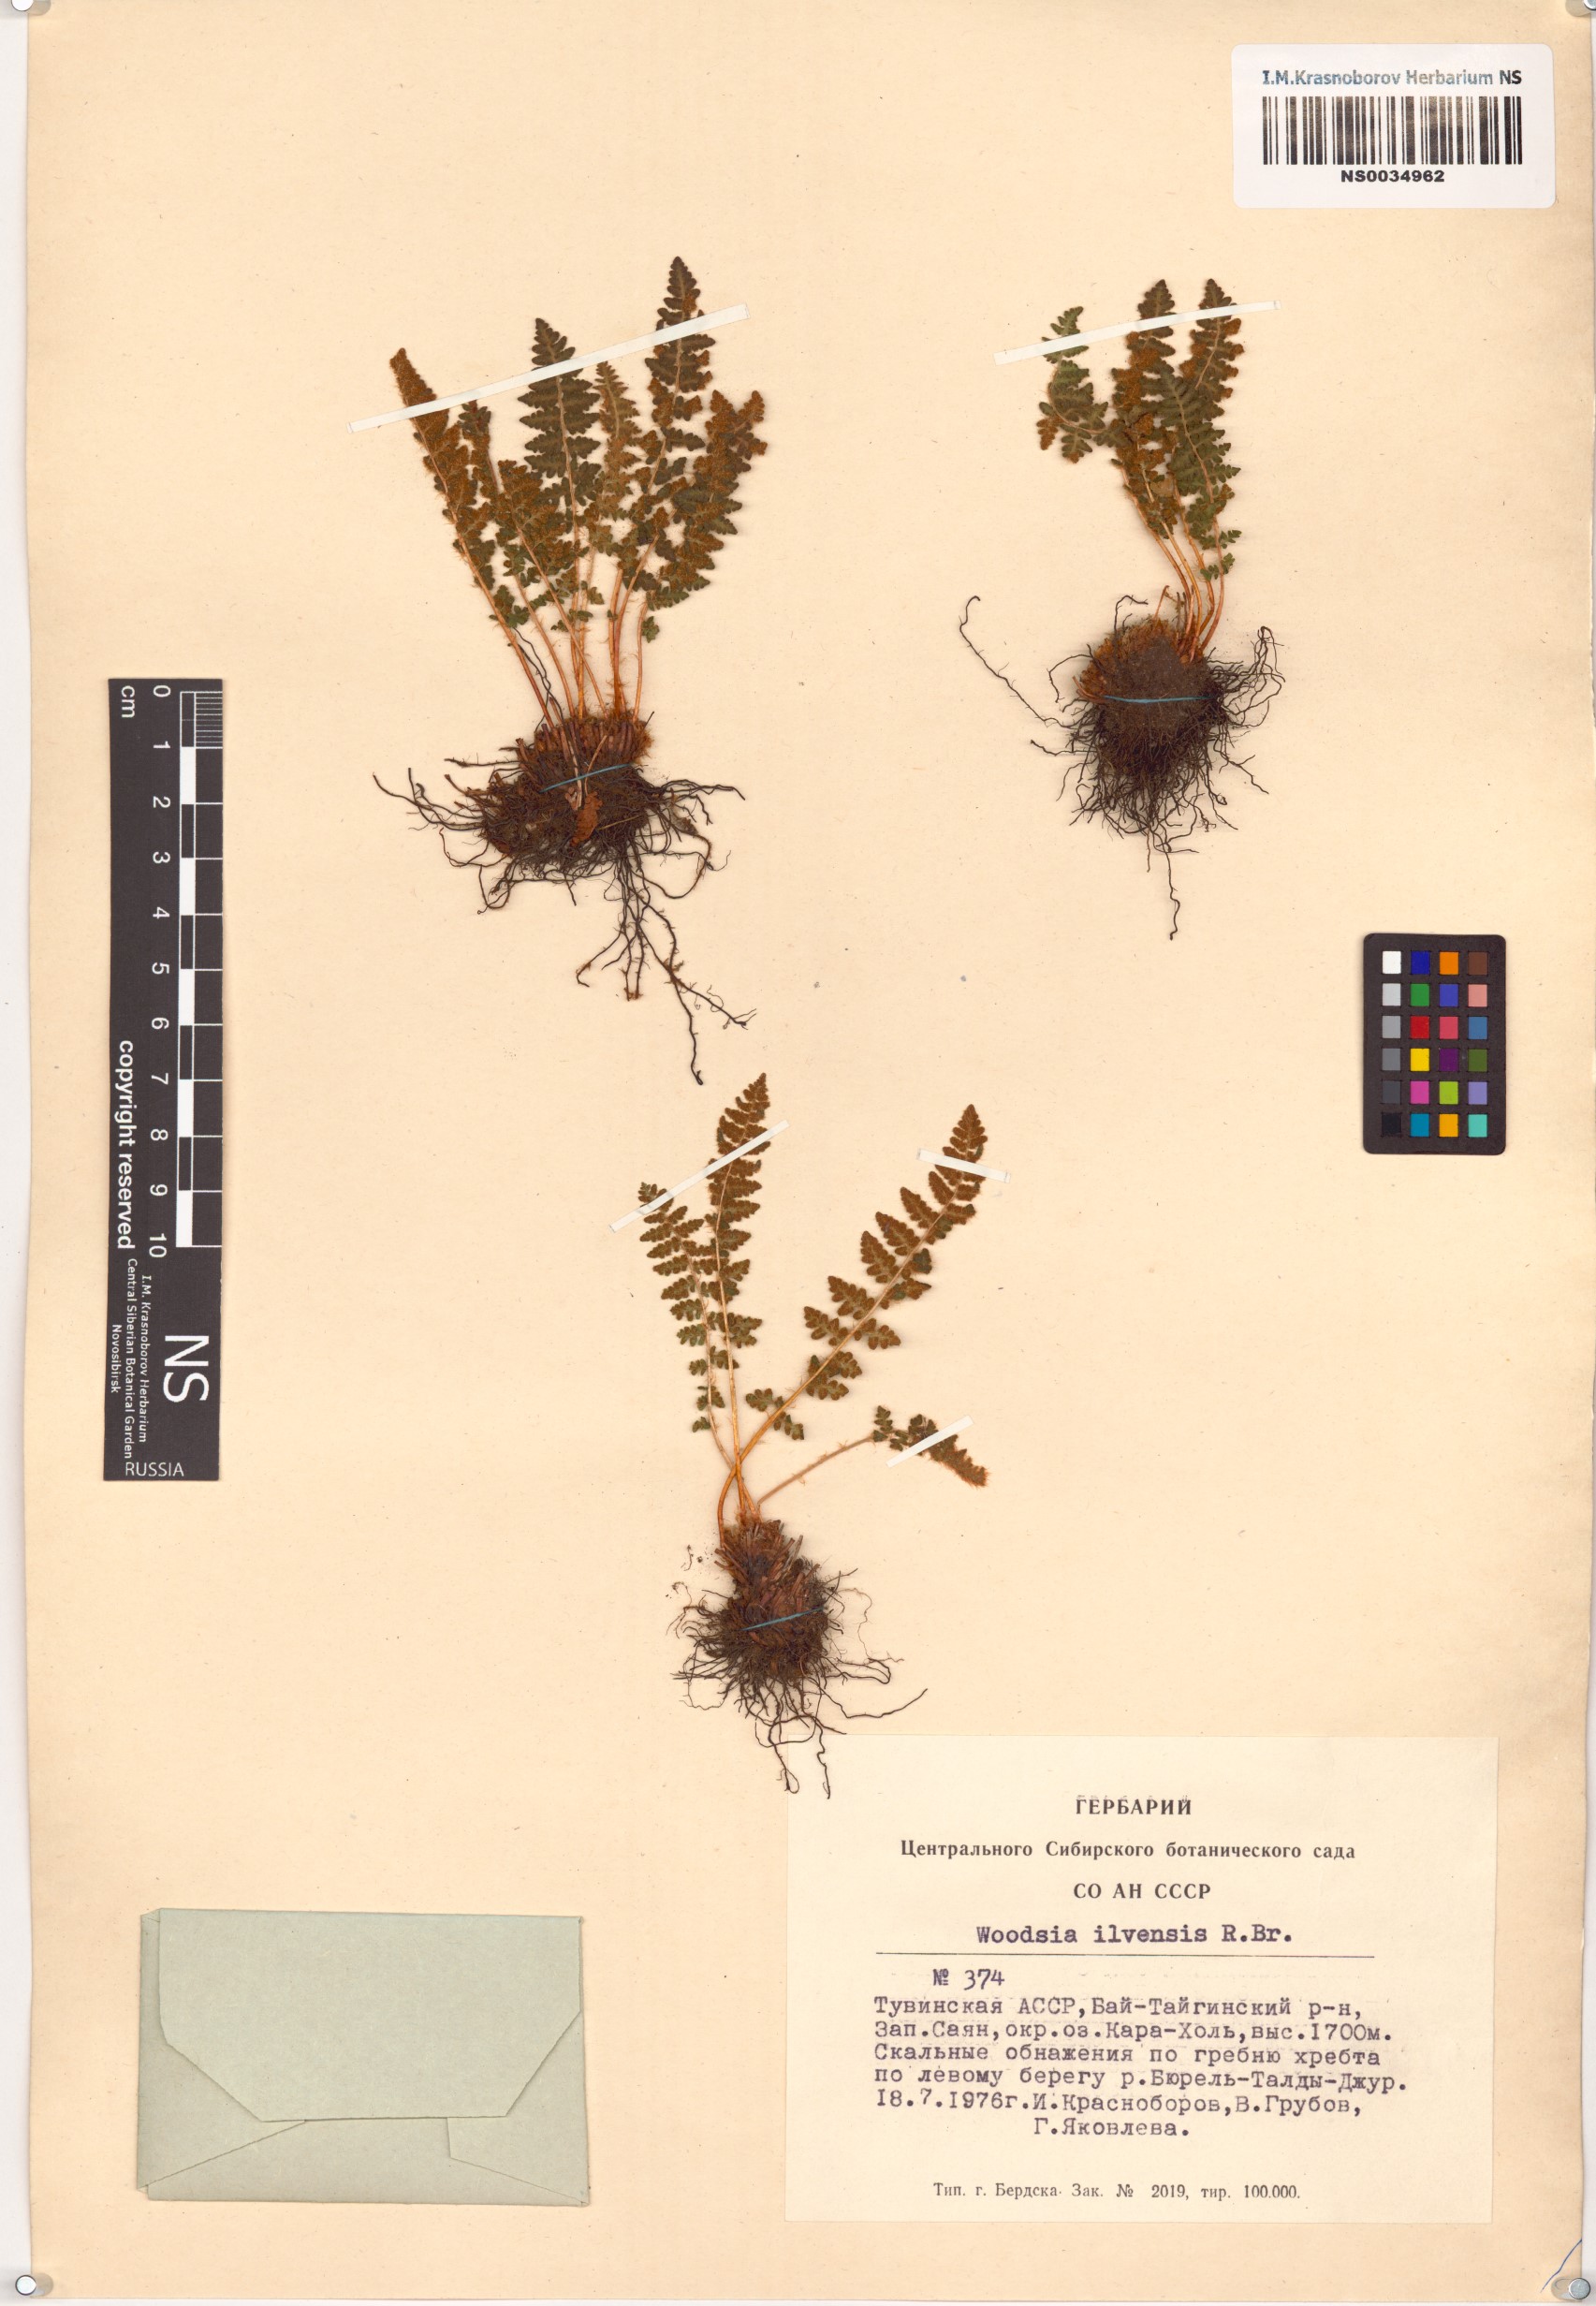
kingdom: Plantae
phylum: Tracheophyta
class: Polypodiopsida
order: Polypodiales
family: Woodsiaceae
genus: Woodsia
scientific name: Woodsia ilvensis
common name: Fragrant woodsia
